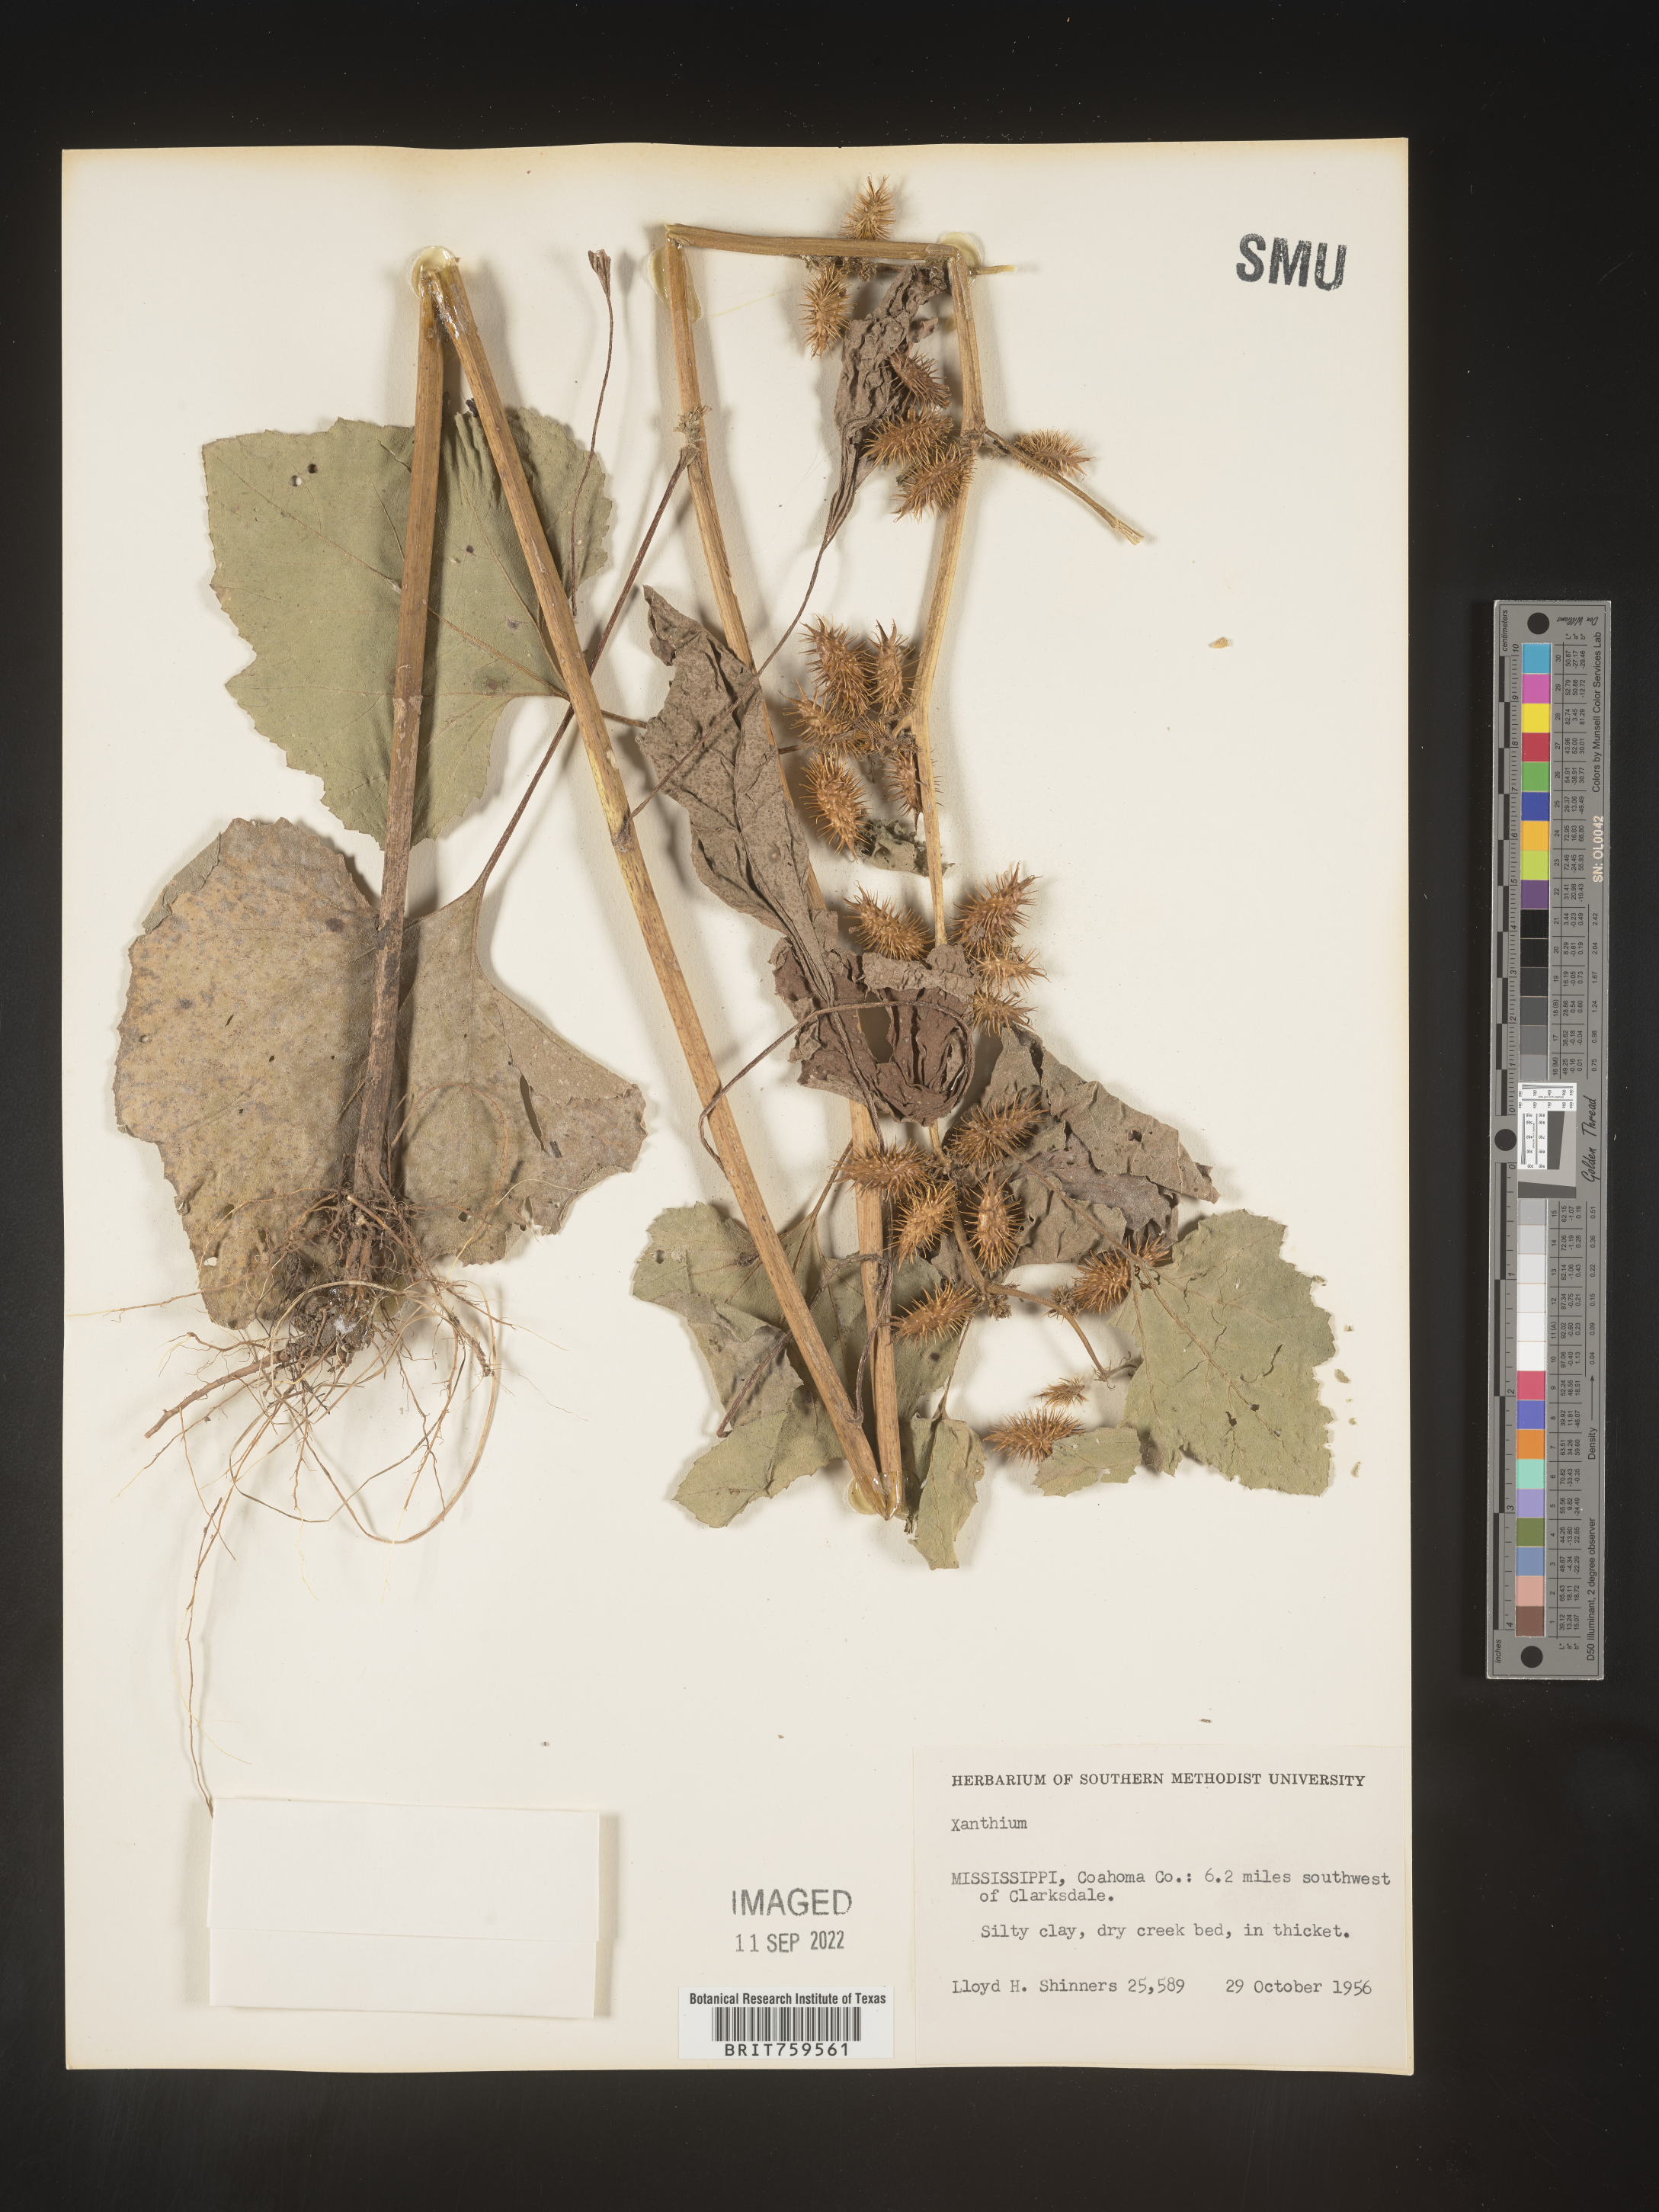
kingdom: Plantae
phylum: Tracheophyta
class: Magnoliopsida
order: Asterales
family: Asteraceae
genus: Xanthium
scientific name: Xanthium
